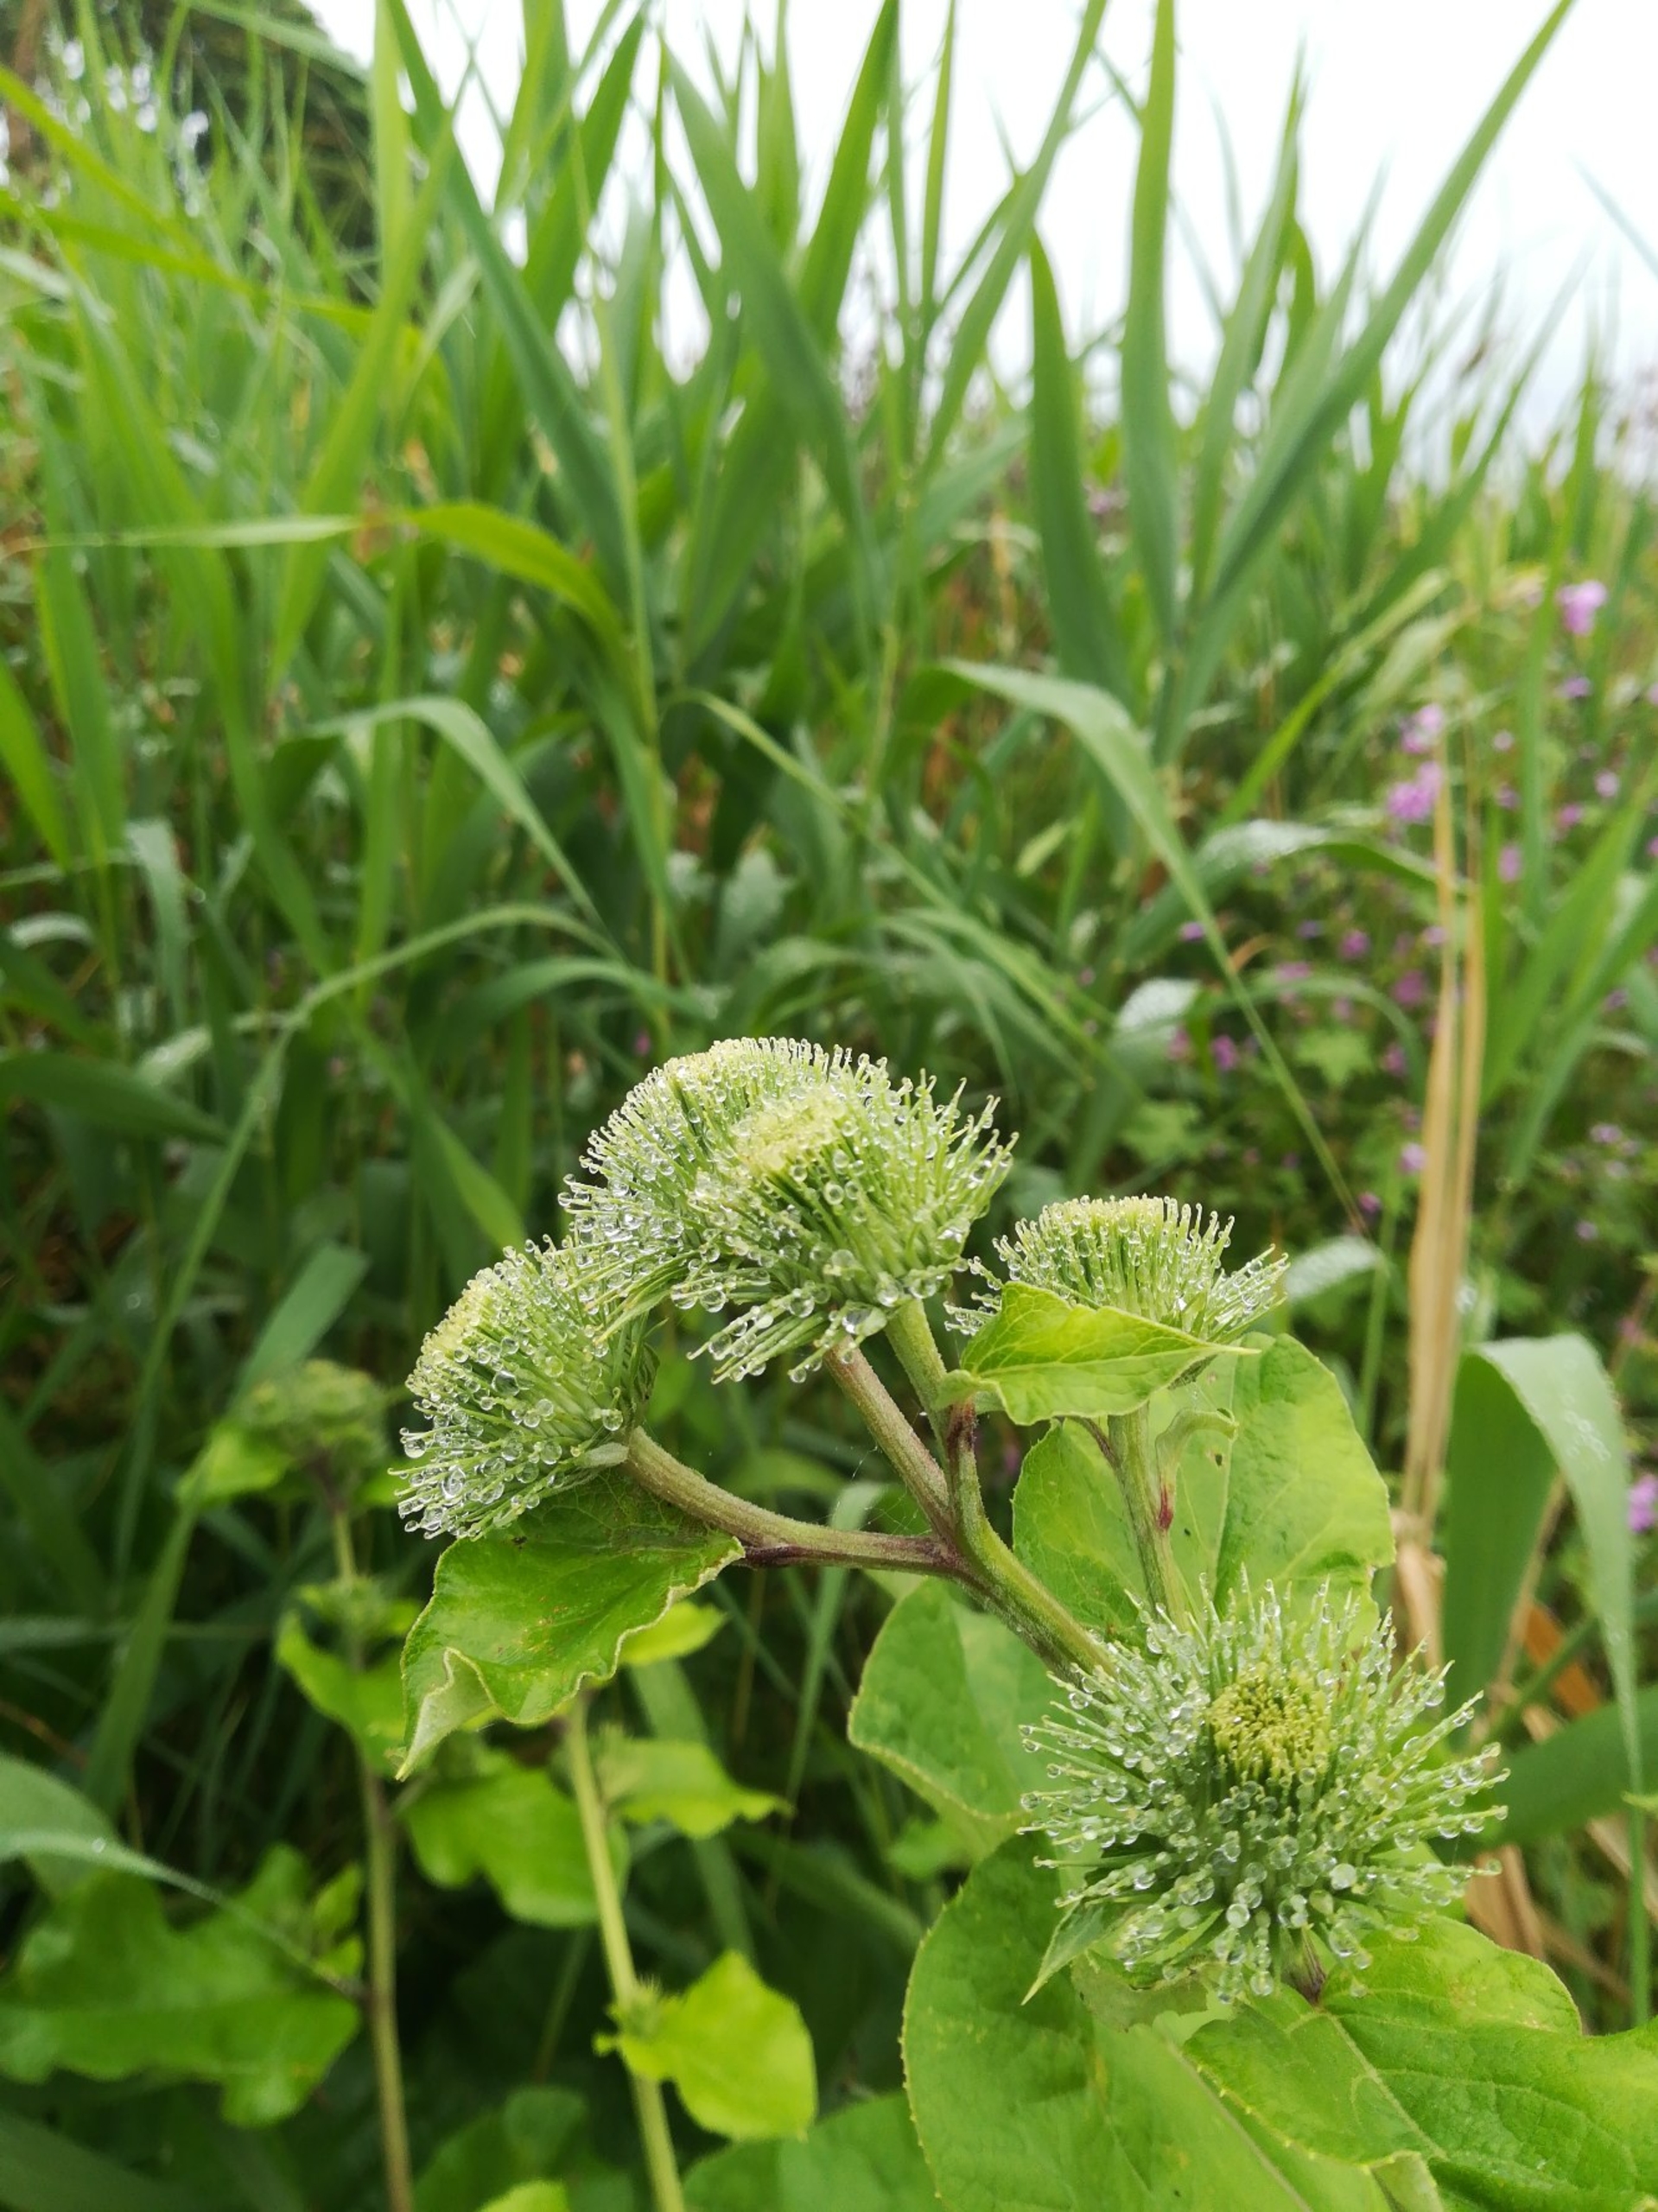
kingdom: Plantae
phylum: Tracheophyta
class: Magnoliopsida
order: Asterales
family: Asteraceae
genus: Arctium
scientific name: Arctium lappa
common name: Glat burre
